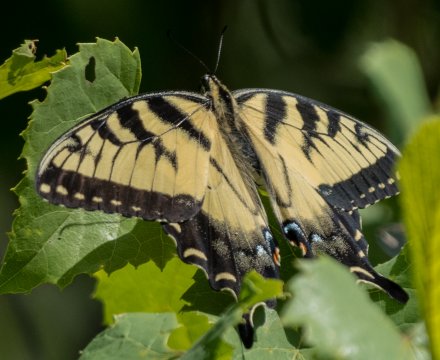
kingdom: Animalia
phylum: Arthropoda
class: Insecta
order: Lepidoptera
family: Papilionidae
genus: Pterourus
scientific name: Pterourus glaucus
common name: Eastern Tiger Swallowtail
